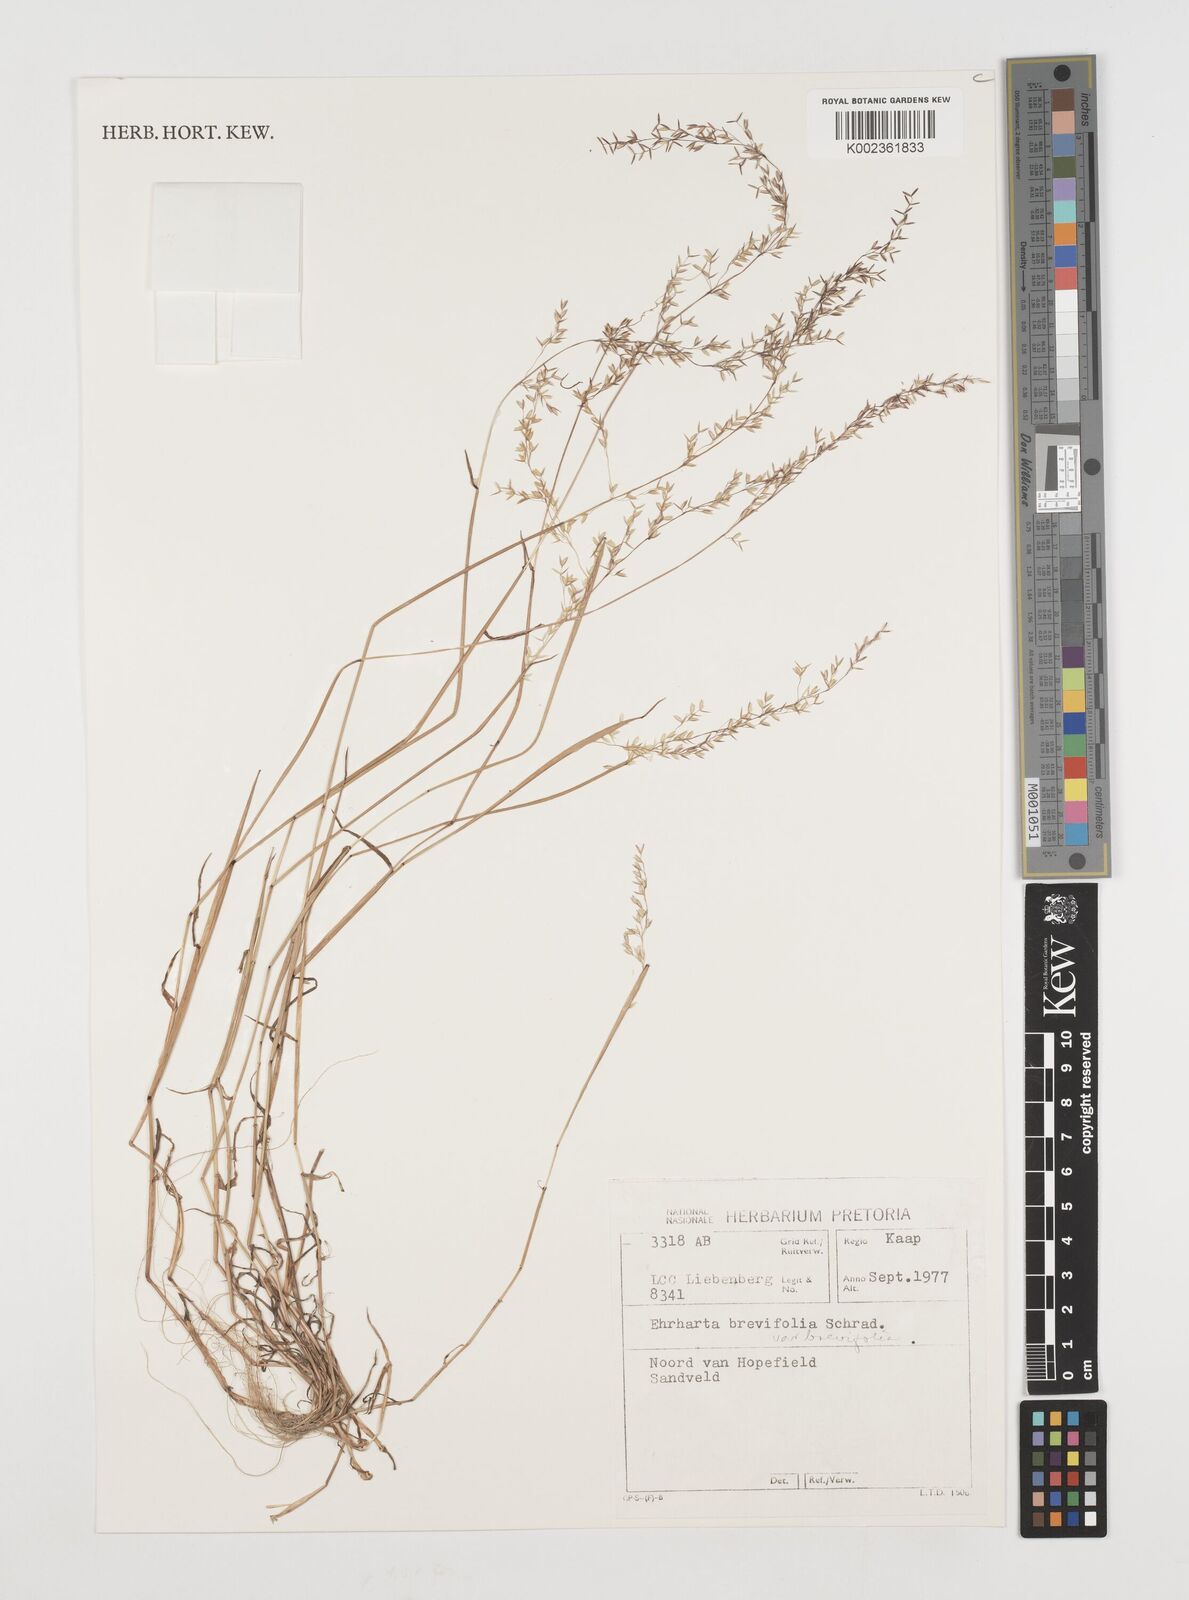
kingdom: Plantae
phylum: Tracheophyta
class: Liliopsida
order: Poales
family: Poaceae
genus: Ehrharta
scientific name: Ehrharta brevifolia
